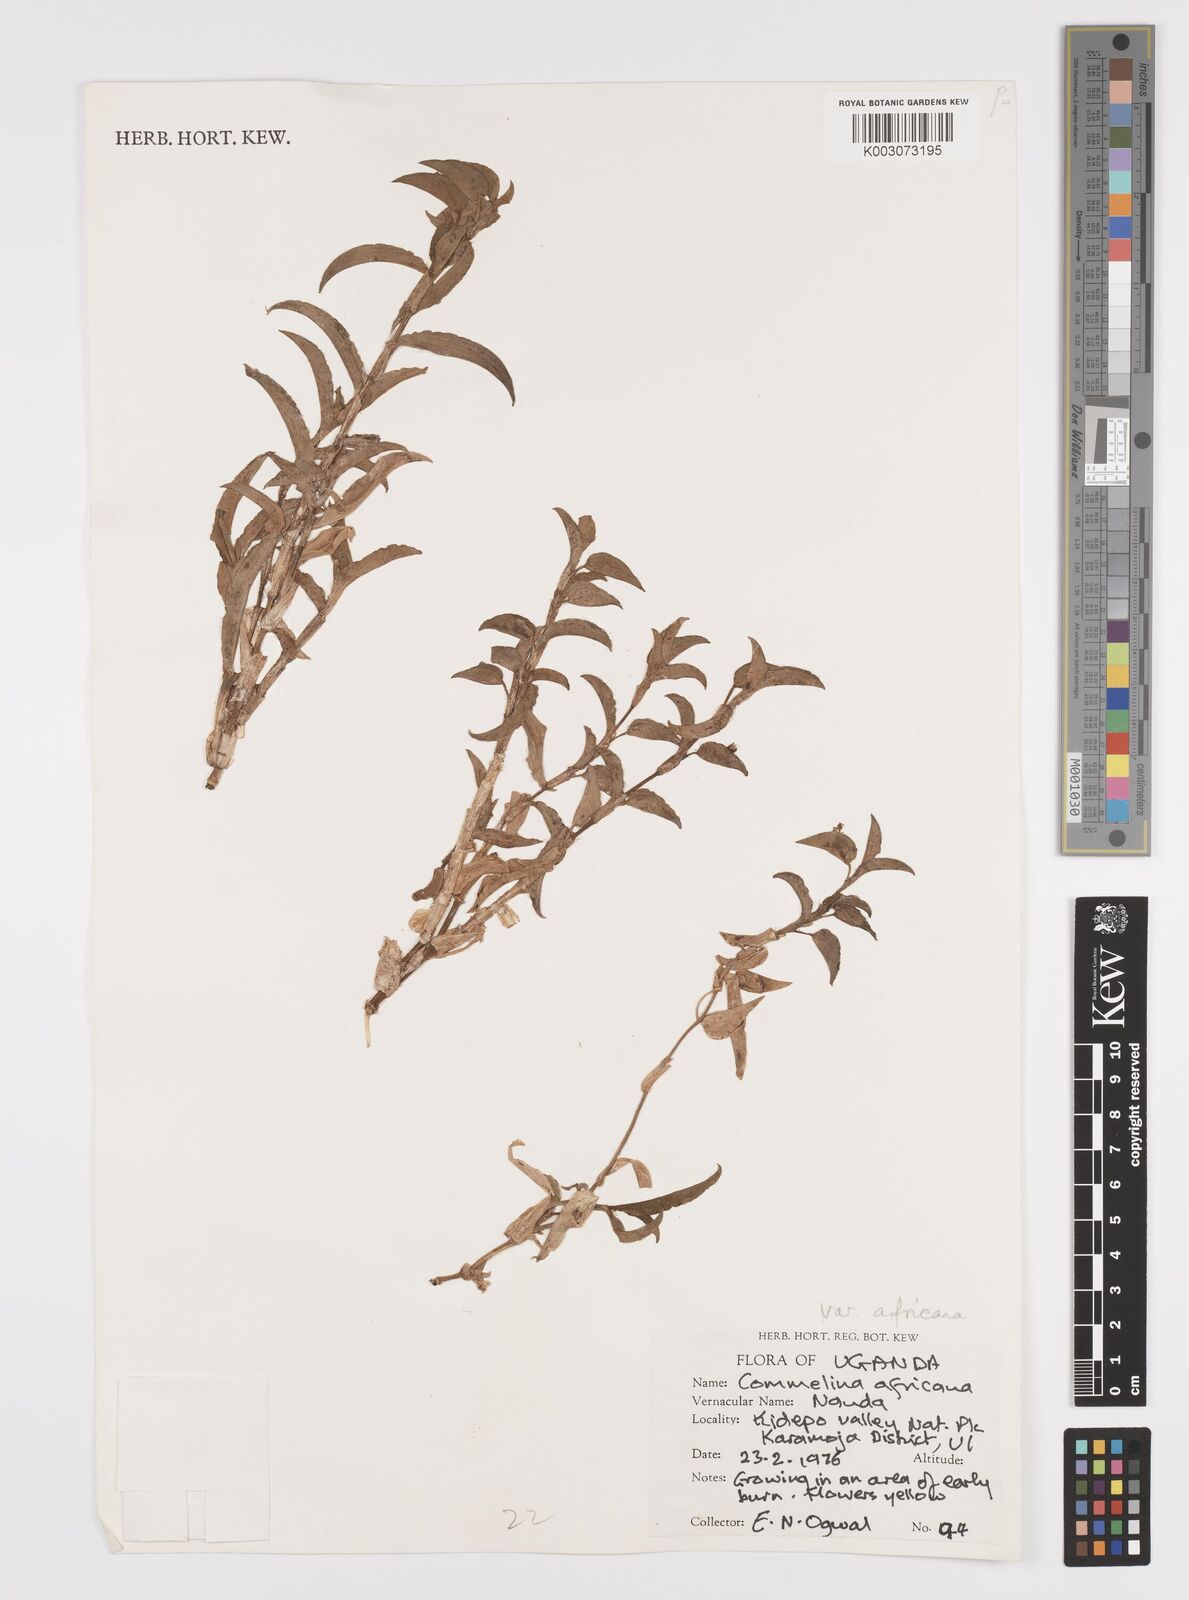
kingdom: Plantae
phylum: Tracheophyta
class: Liliopsida
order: Commelinales
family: Commelinaceae
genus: Commelina
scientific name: Commelina africana
